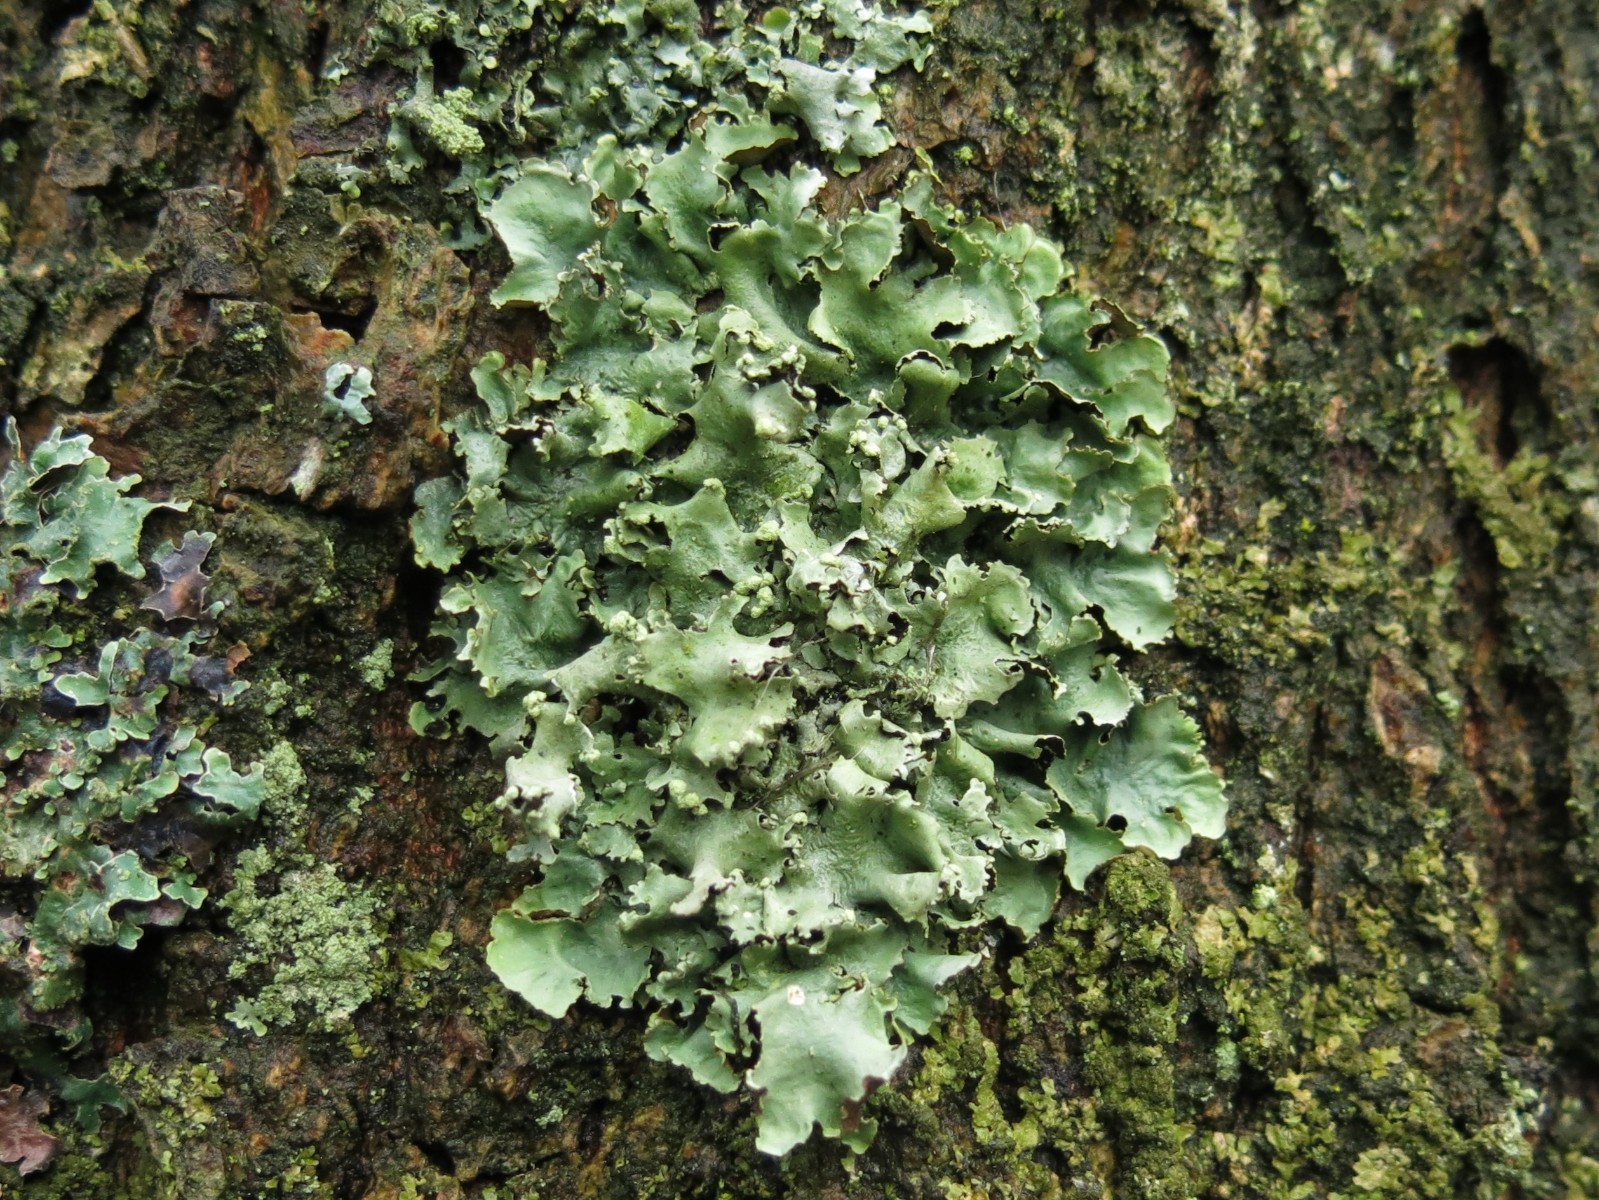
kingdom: Fungi
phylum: Ascomycota
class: Lecanoromycetes
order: Lecanorales
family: Parmeliaceae
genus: Parmotrema
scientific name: Parmotrema perlatum
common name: trådet skållav
